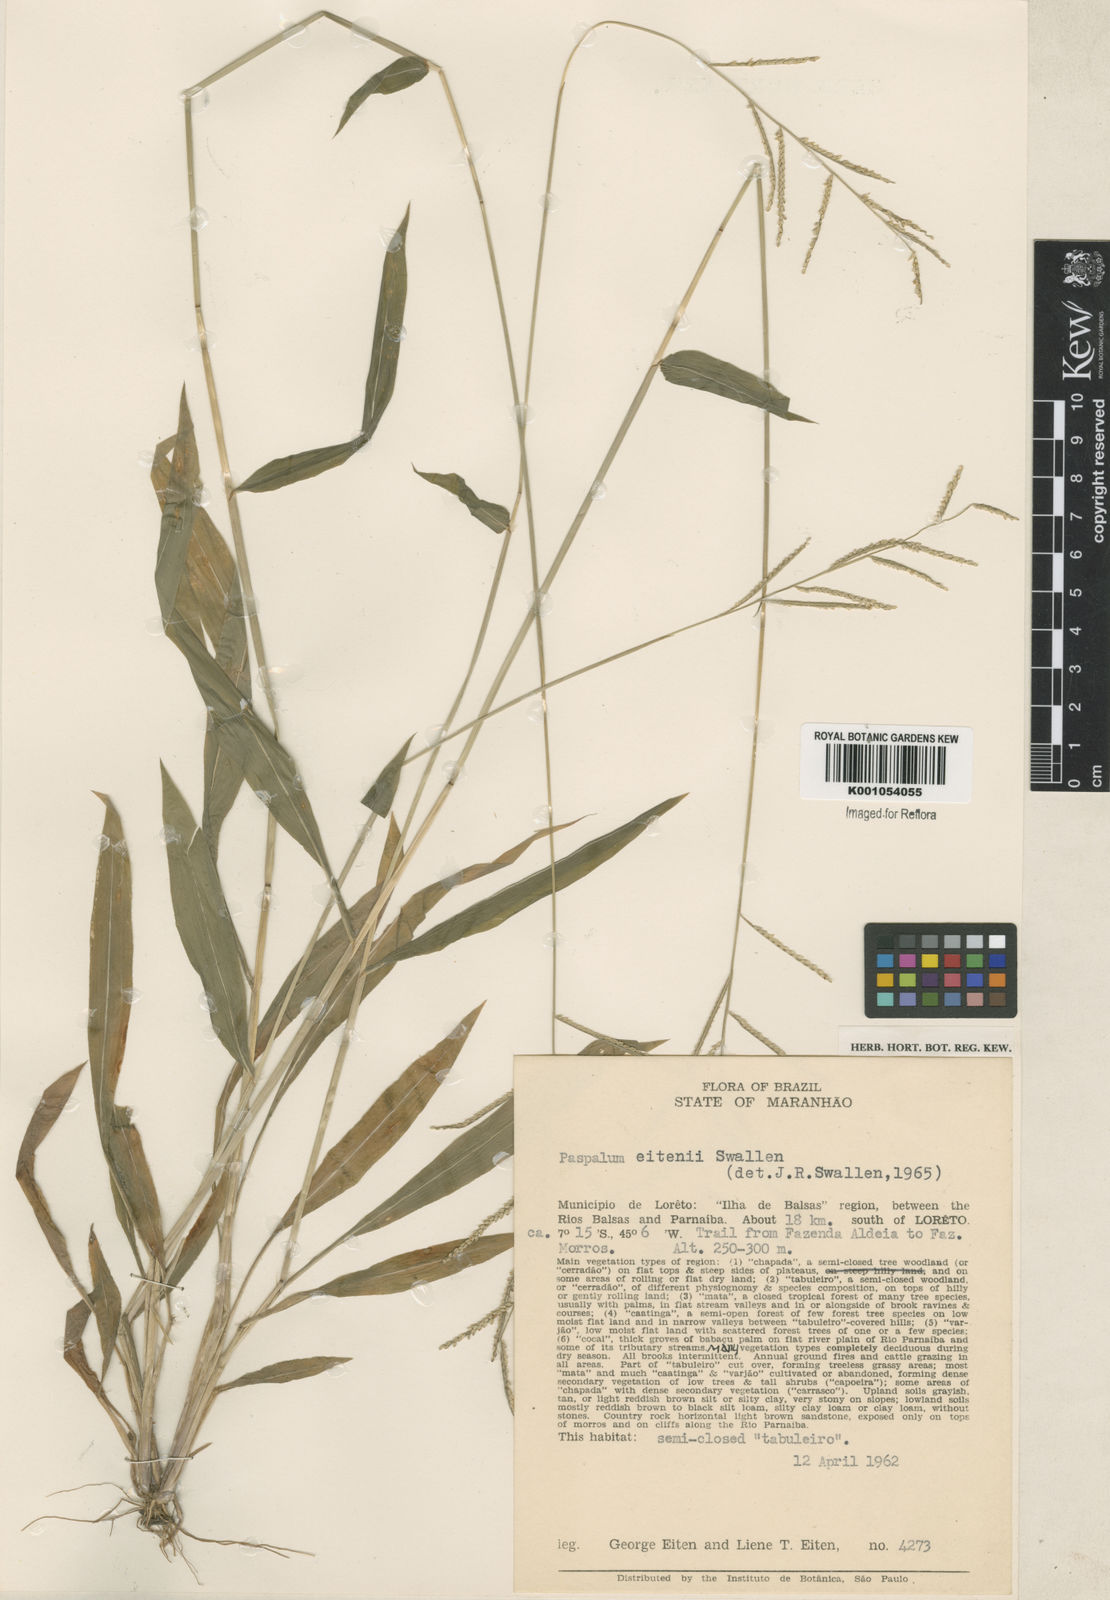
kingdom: Plantae
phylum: Tracheophyta
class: Liliopsida
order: Poales
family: Poaceae
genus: Paspalum
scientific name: Paspalum malacophyllum
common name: Ribbed paspalum
